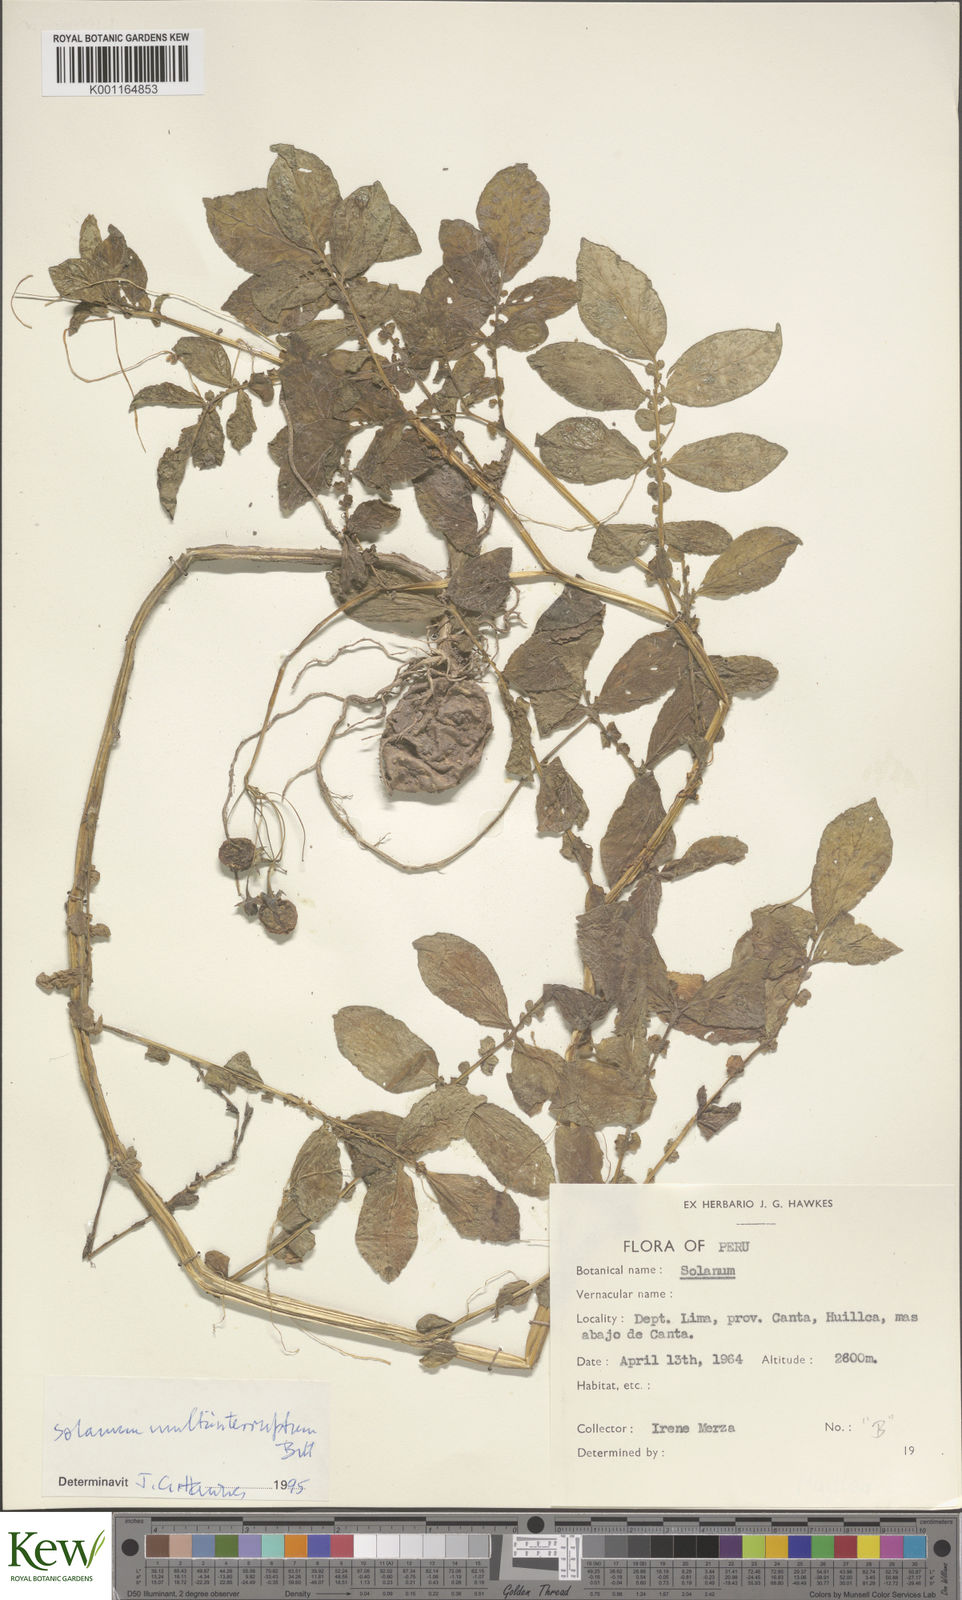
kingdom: Plantae
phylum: Tracheophyta
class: Magnoliopsida
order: Solanales
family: Solanaceae
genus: Solanum
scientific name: Solanum multiinterruptum
